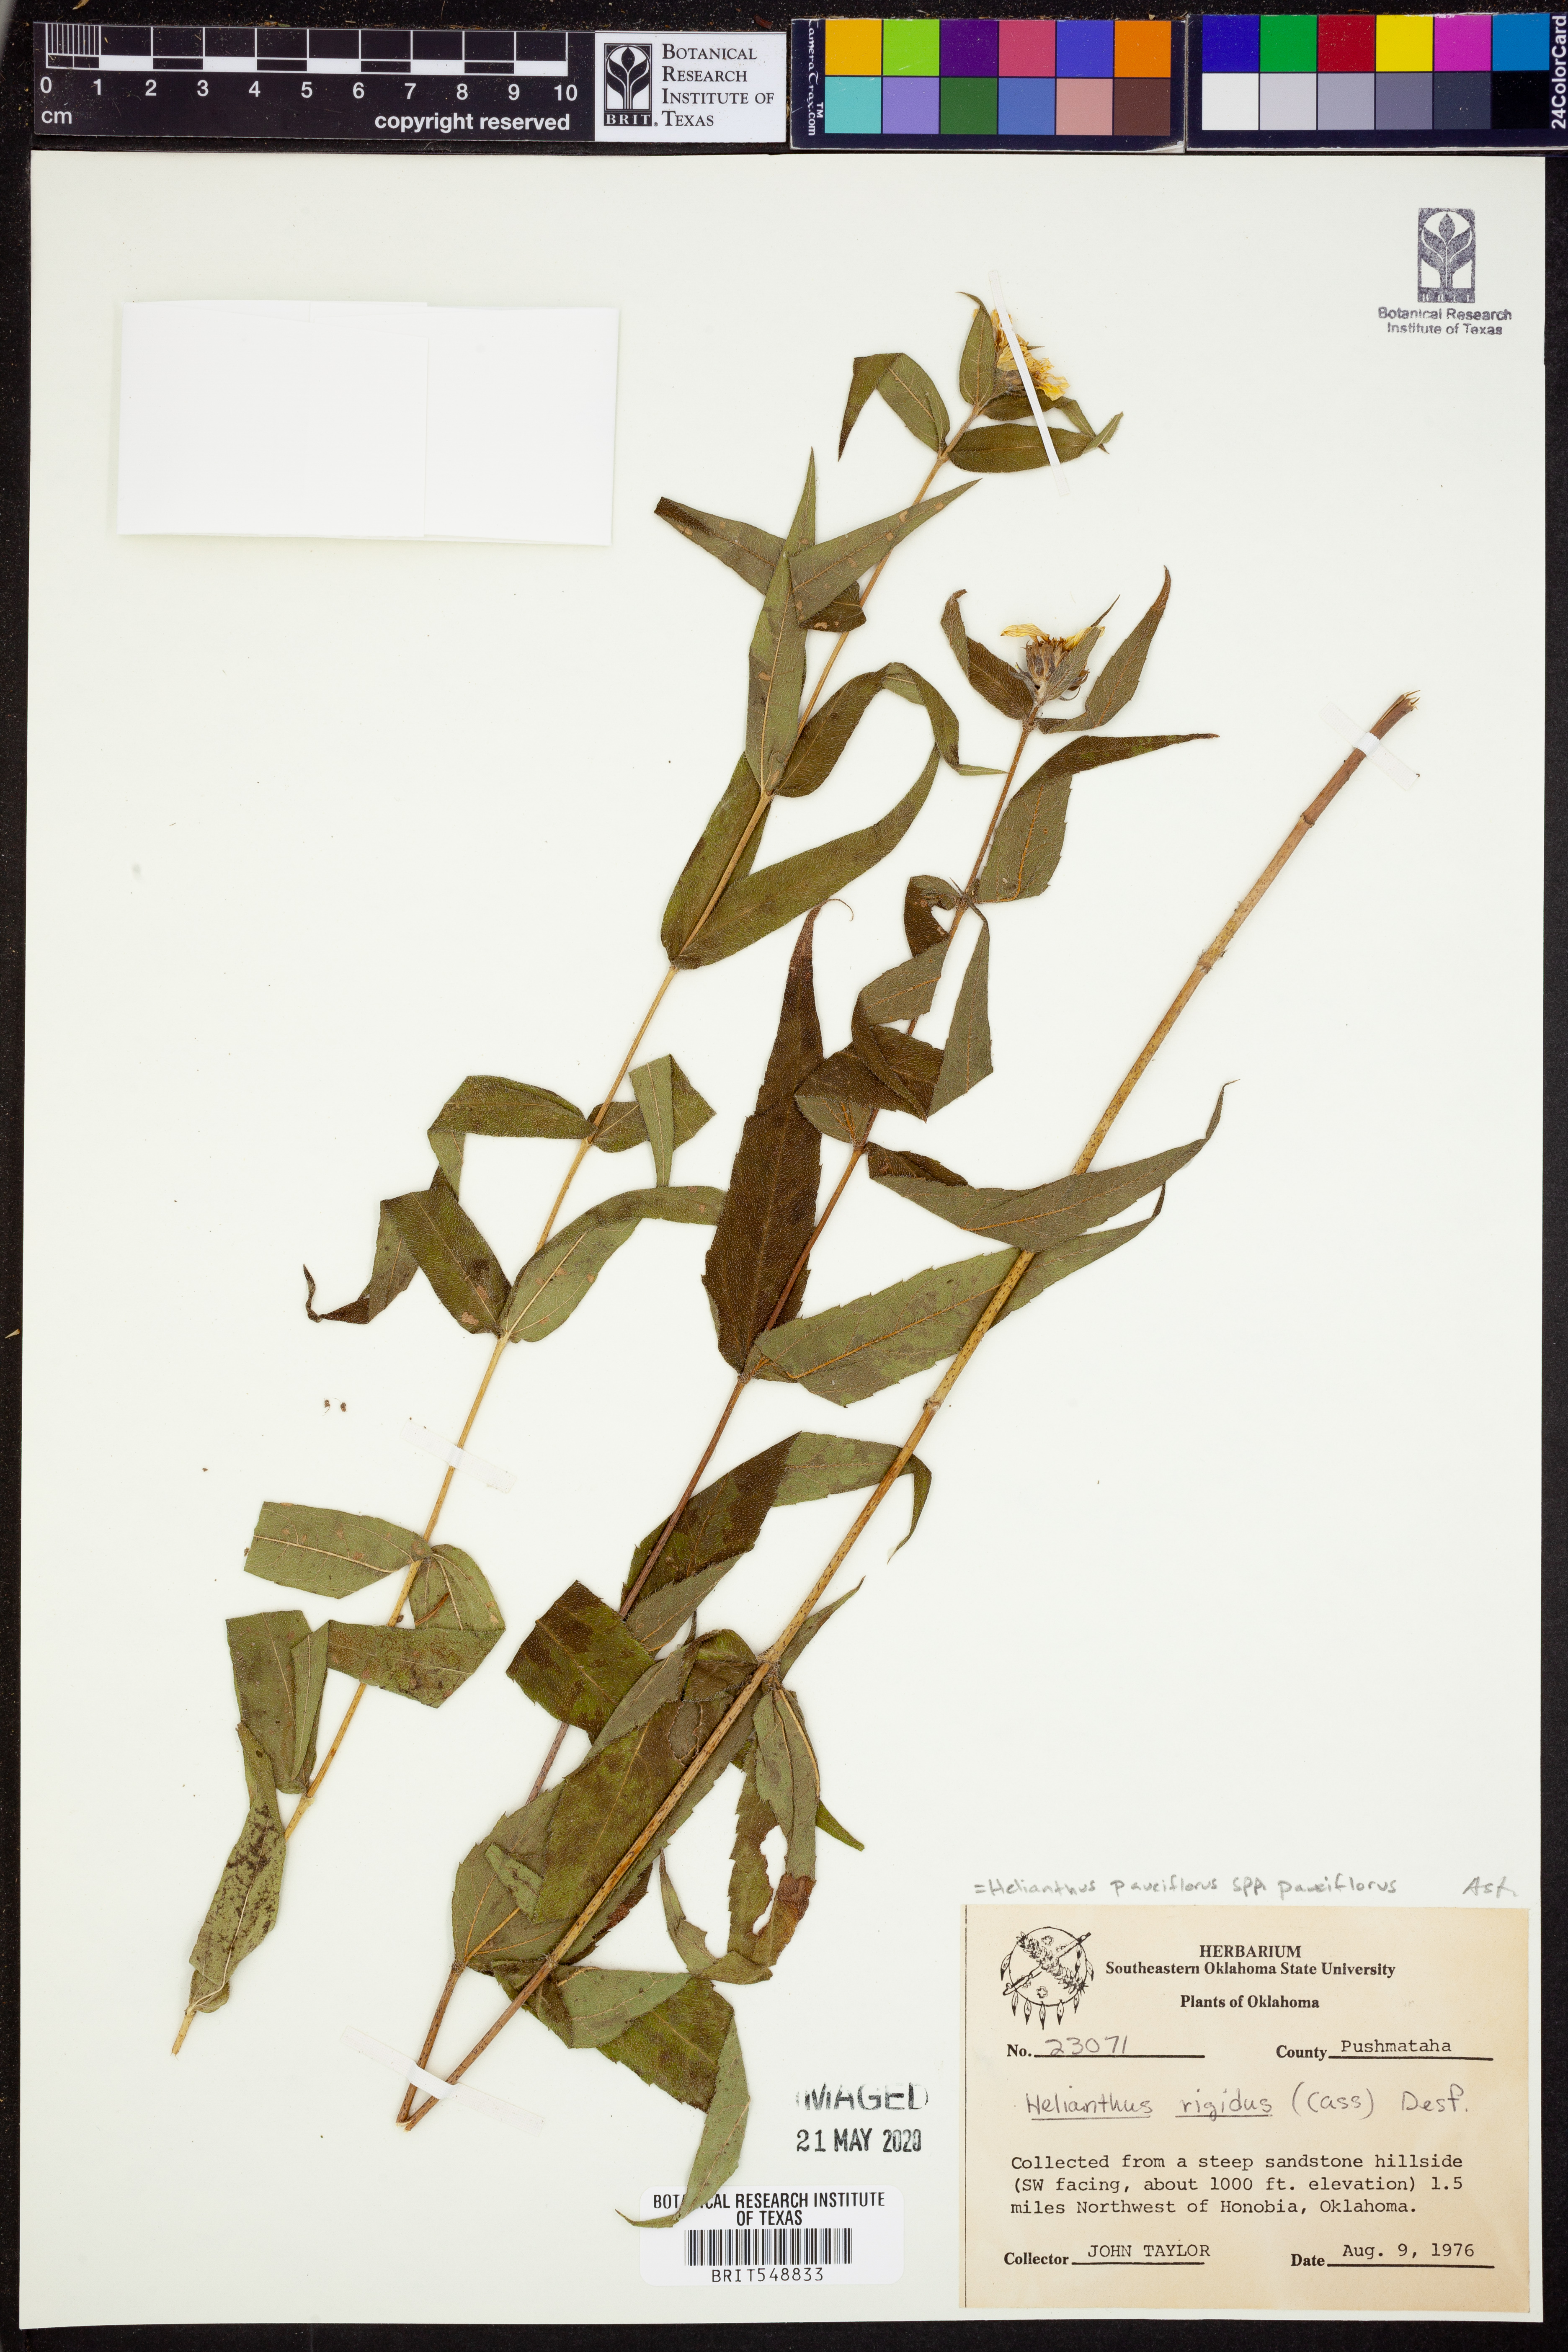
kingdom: Plantae
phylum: Tracheophyta
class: Magnoliopsida
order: Asterales
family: Asteraceae
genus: Helianthus
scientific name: Helianthus pauciflorus
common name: Stiff sunflower
